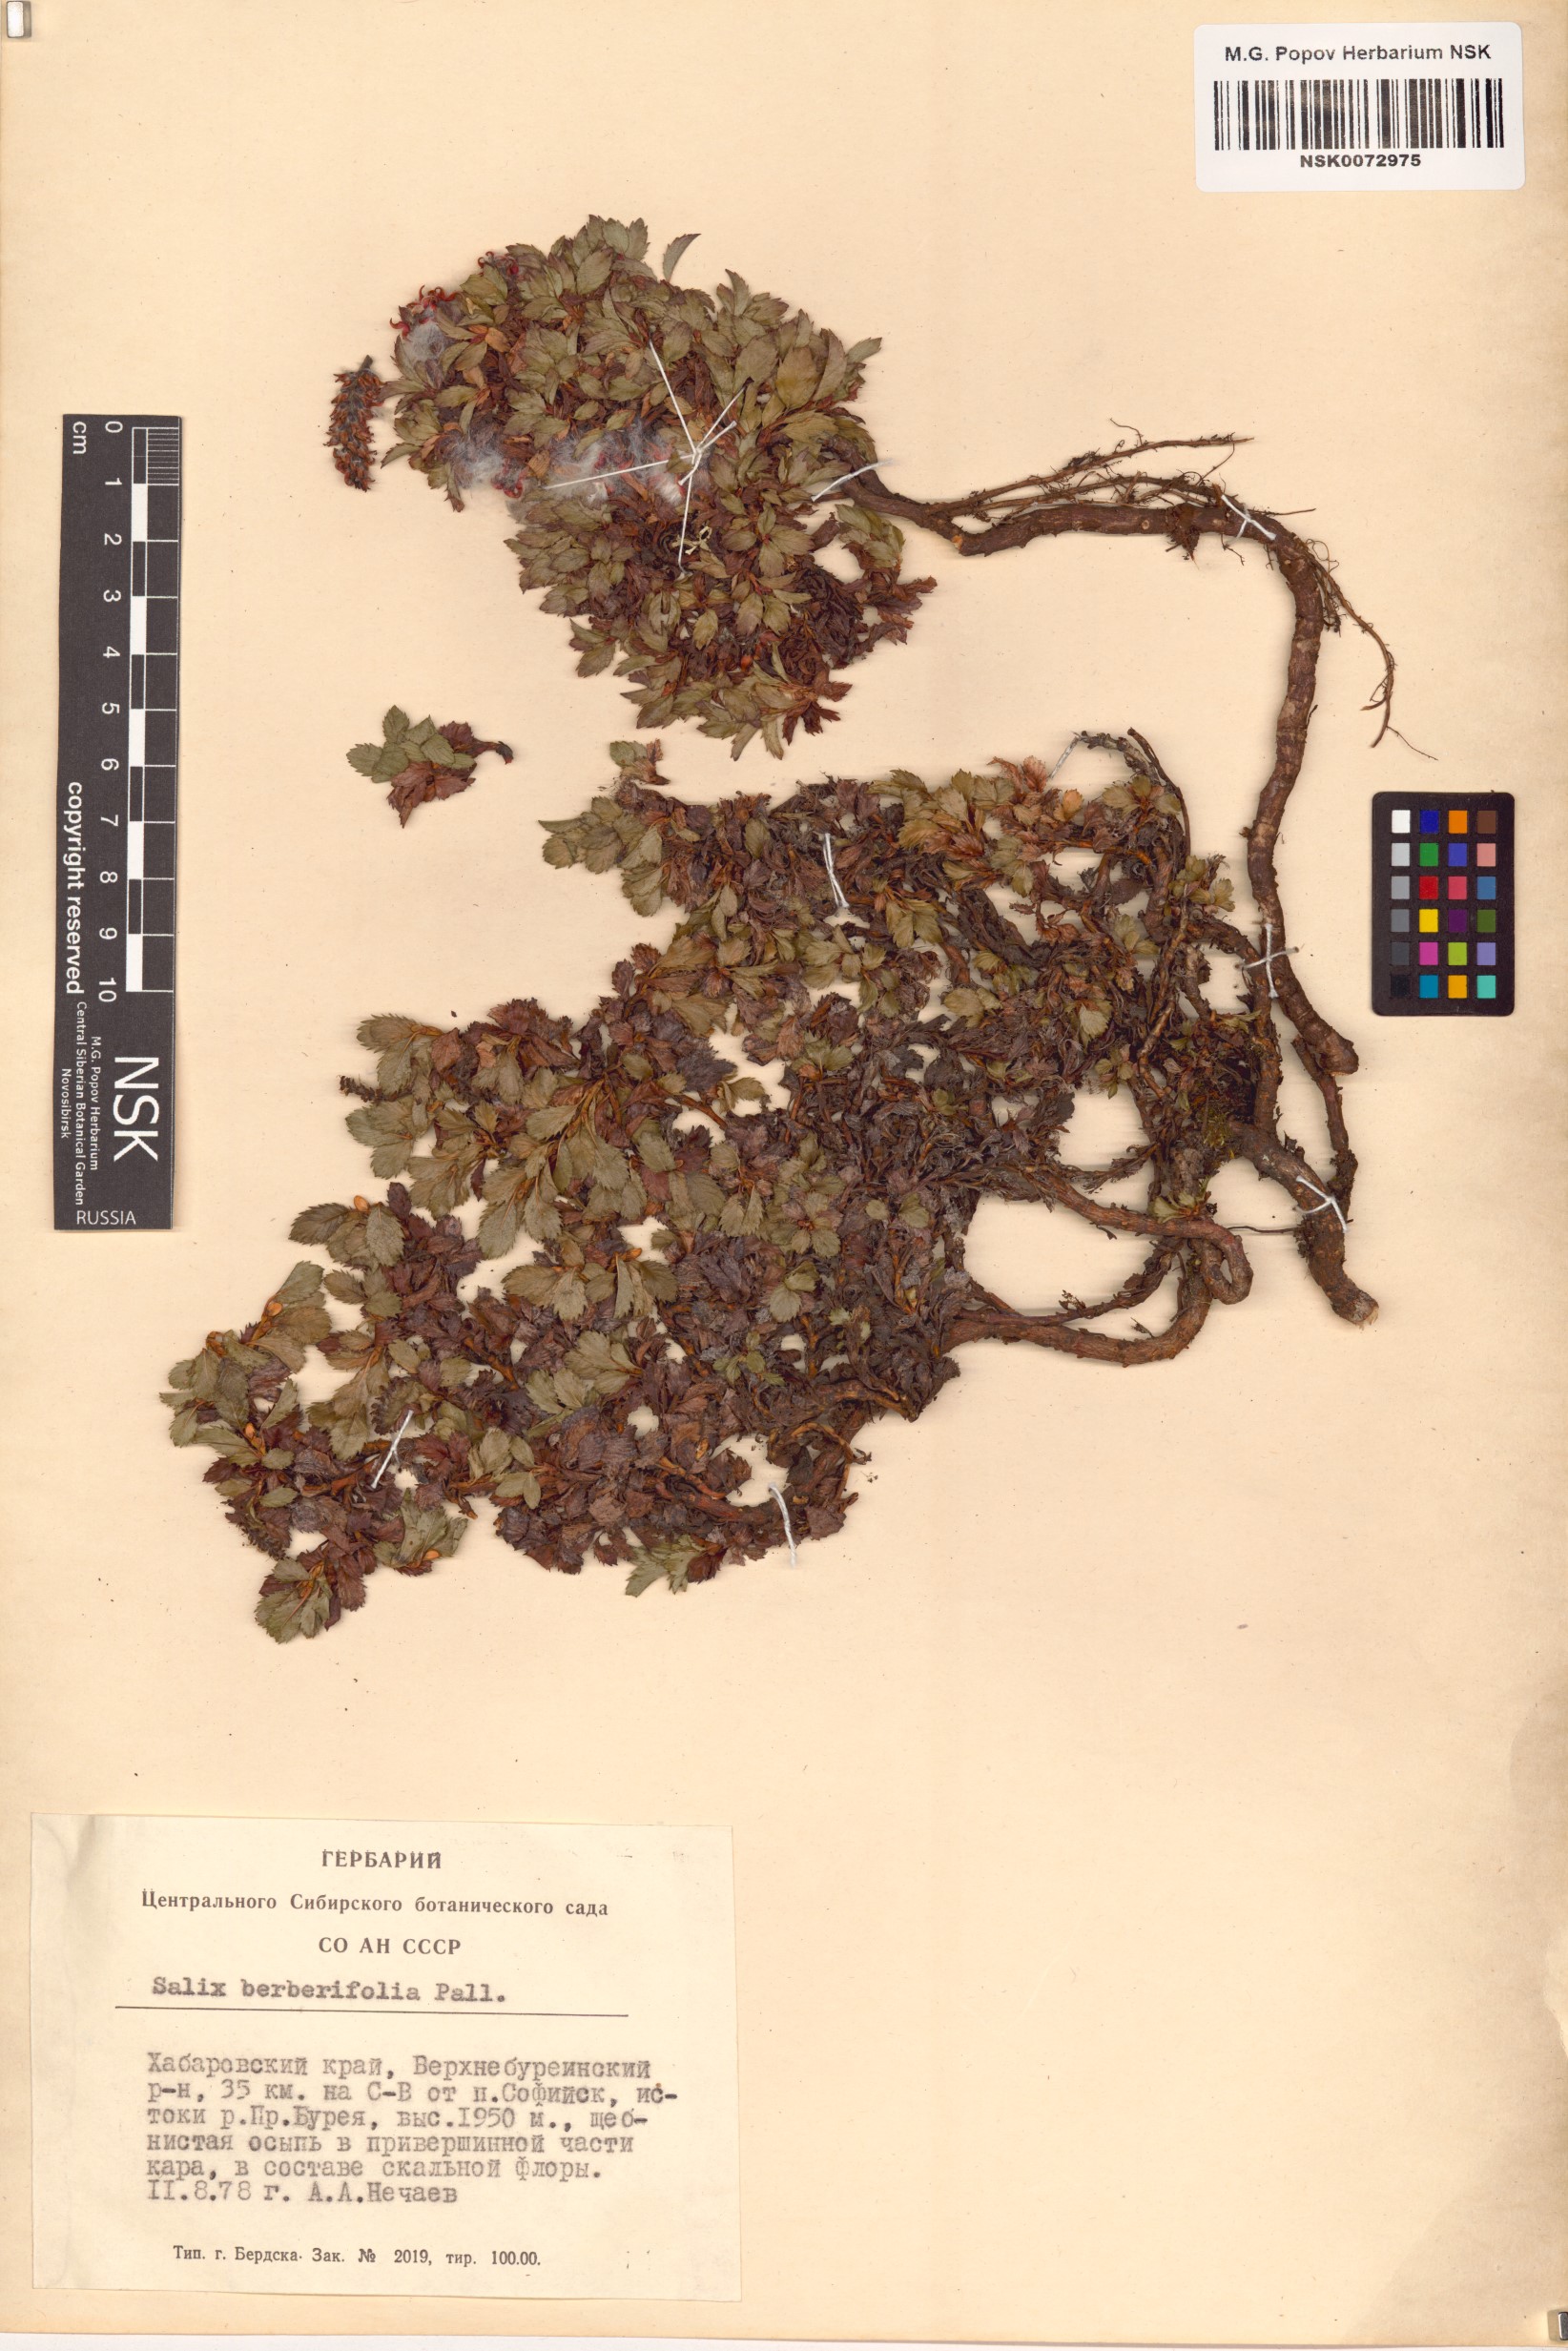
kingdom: Plantae
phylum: Tracheophyta
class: Magnoliopsida
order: Malpighiales
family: Salicaceae
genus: Salix
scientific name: Salix berberifolia
